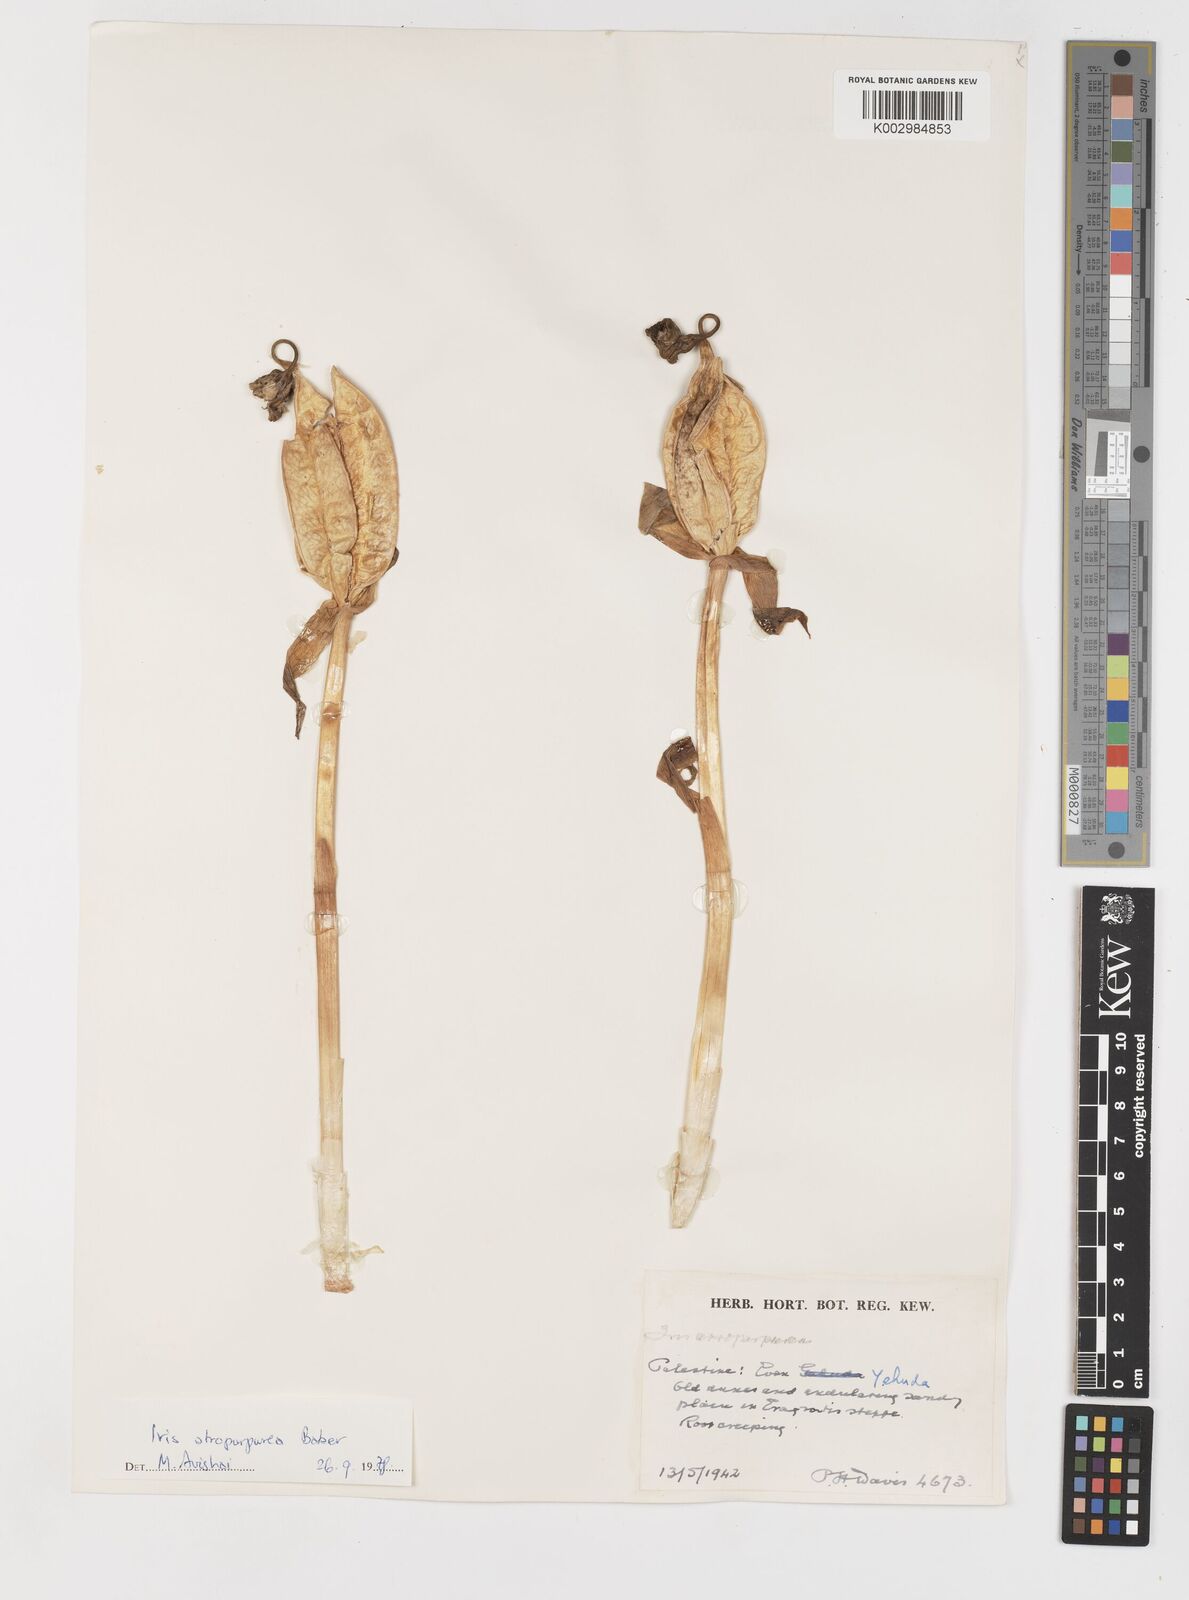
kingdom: Plantae
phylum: Tracheophyta
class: Liliopsida
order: Asparagales
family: Iridaceae
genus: Iris
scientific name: Iris atropurpurea
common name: Coastal iris
